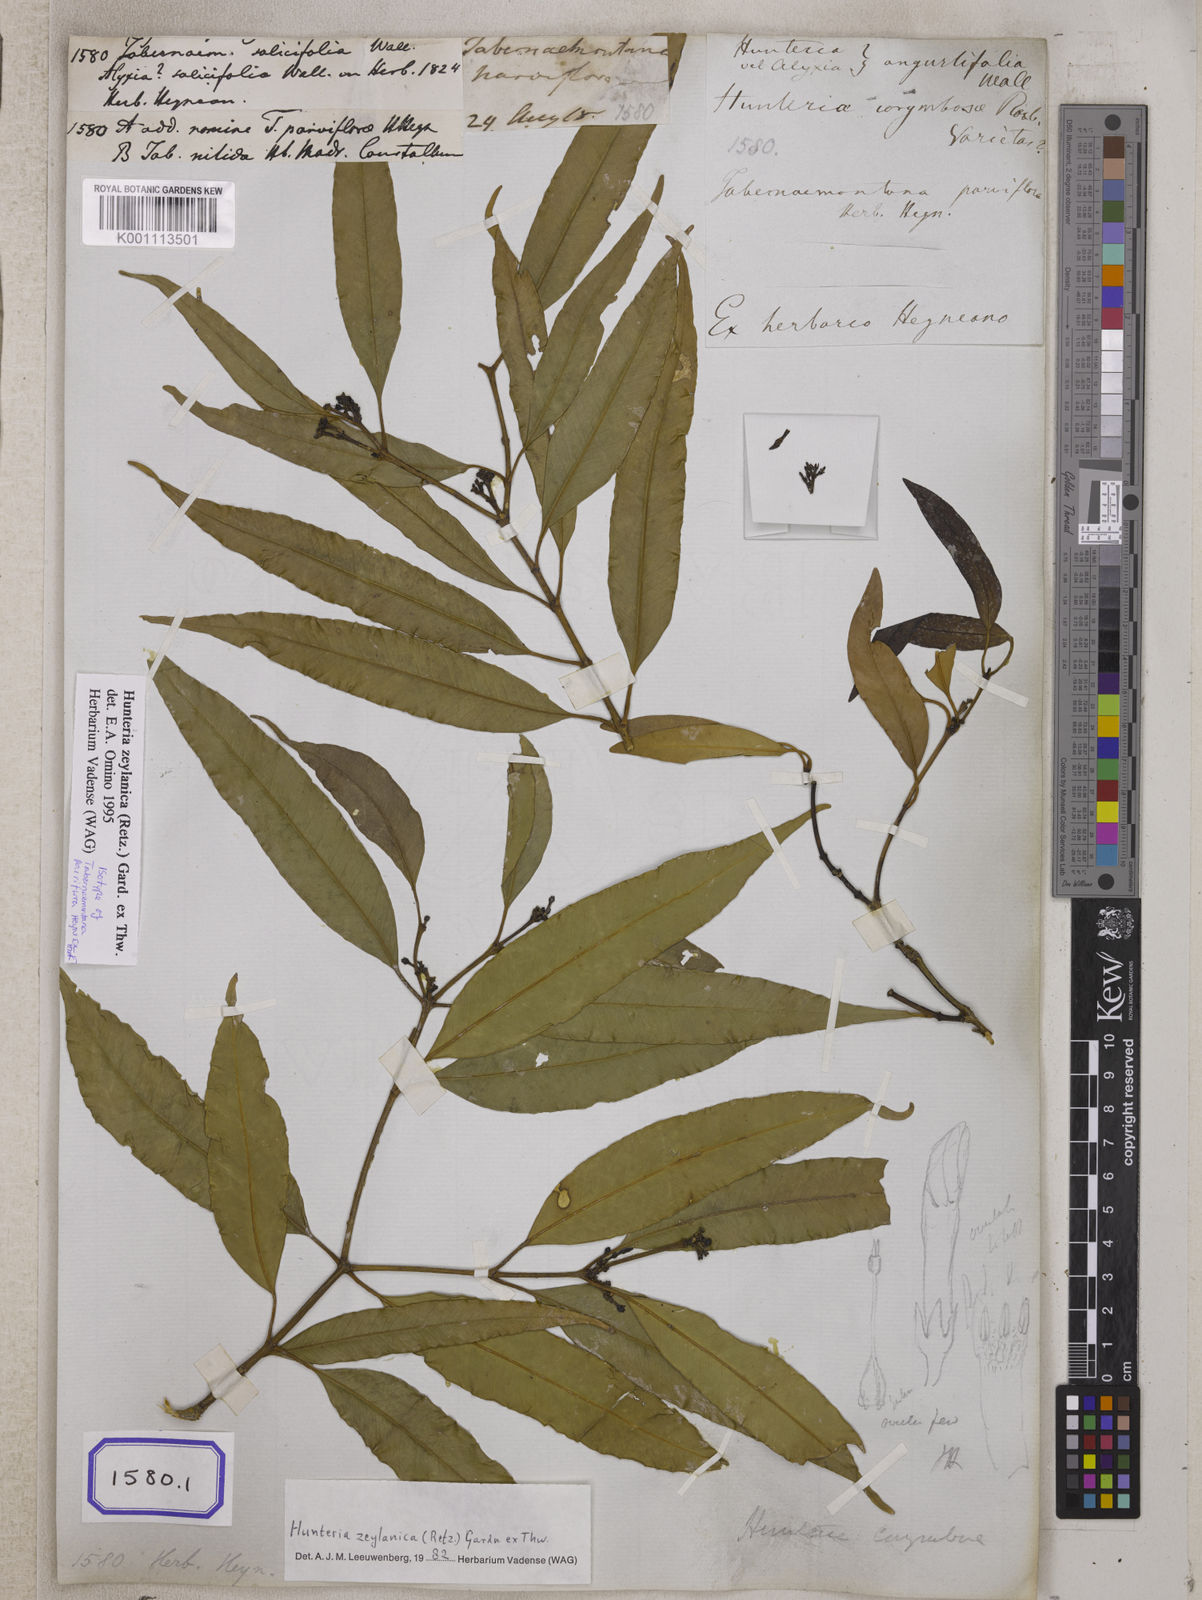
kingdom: Plantae
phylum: Tracheophyta
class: Magnoliopsida
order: Gentianales
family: Apocynaceae
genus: Tabernaemontana
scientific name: Tabernaemontana
